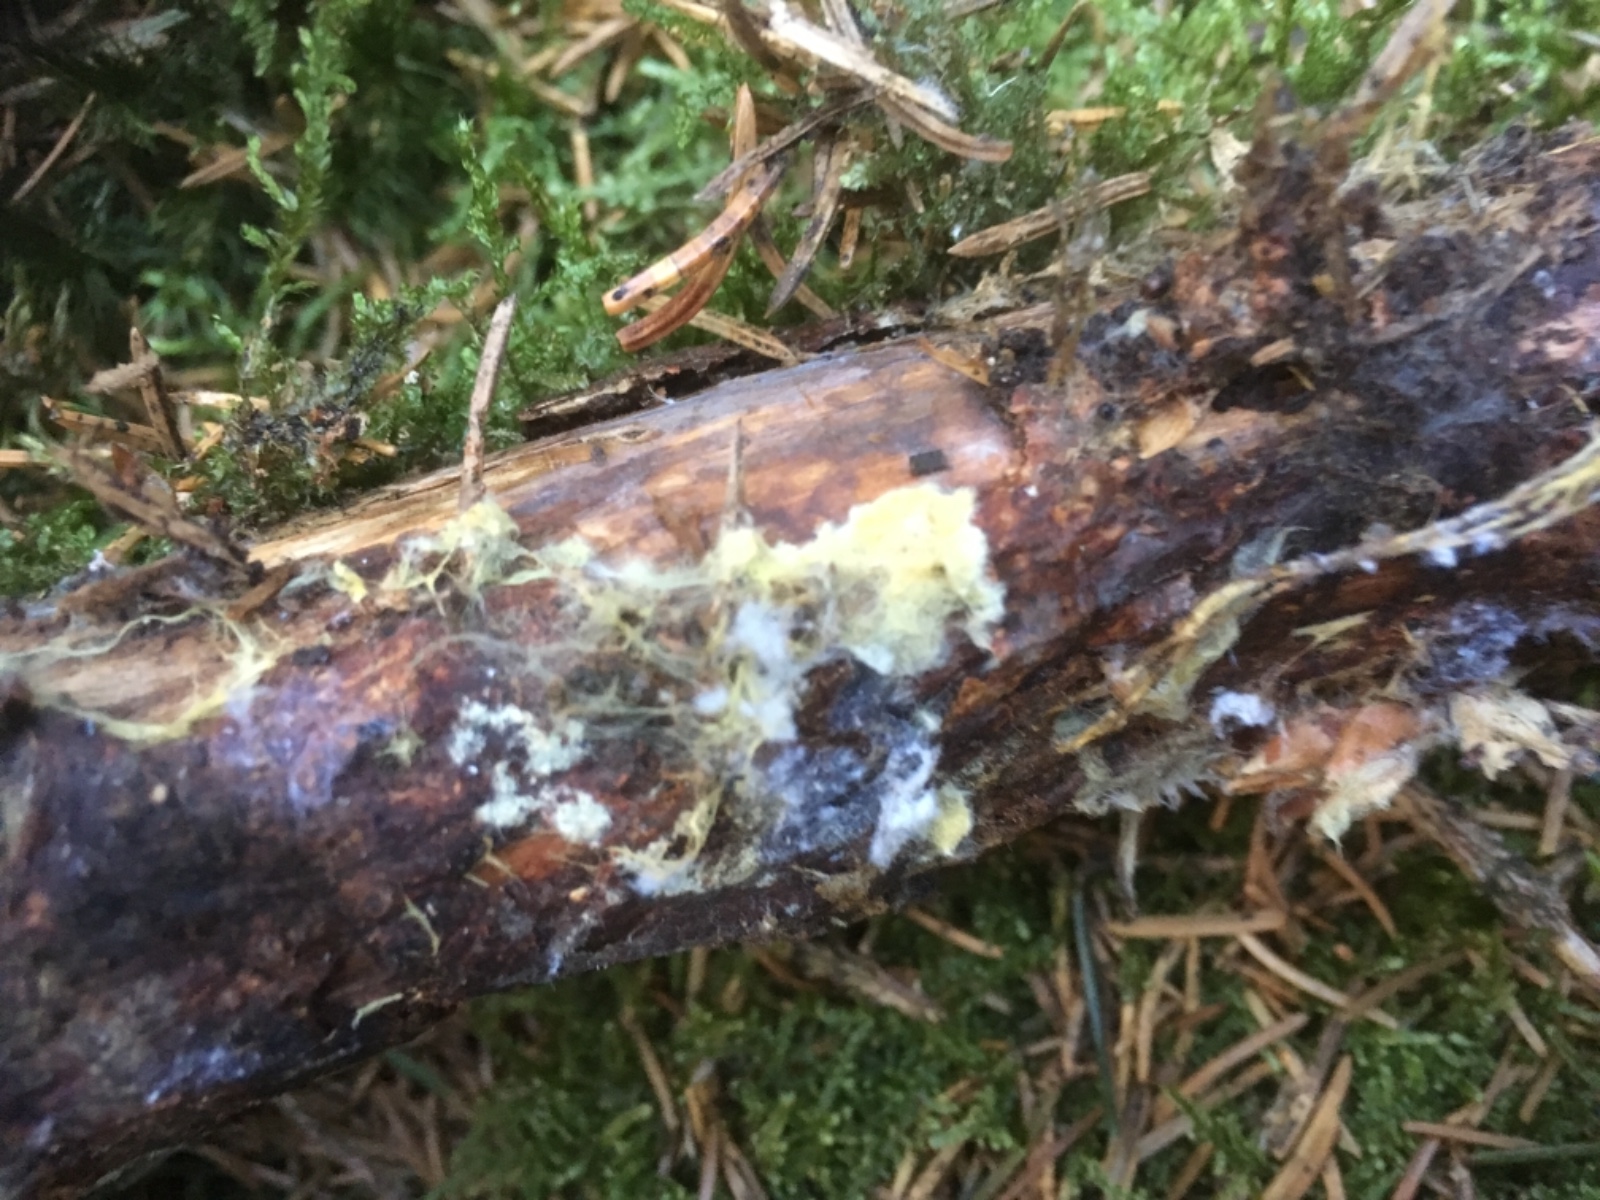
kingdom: Fungi
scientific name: Fungi
